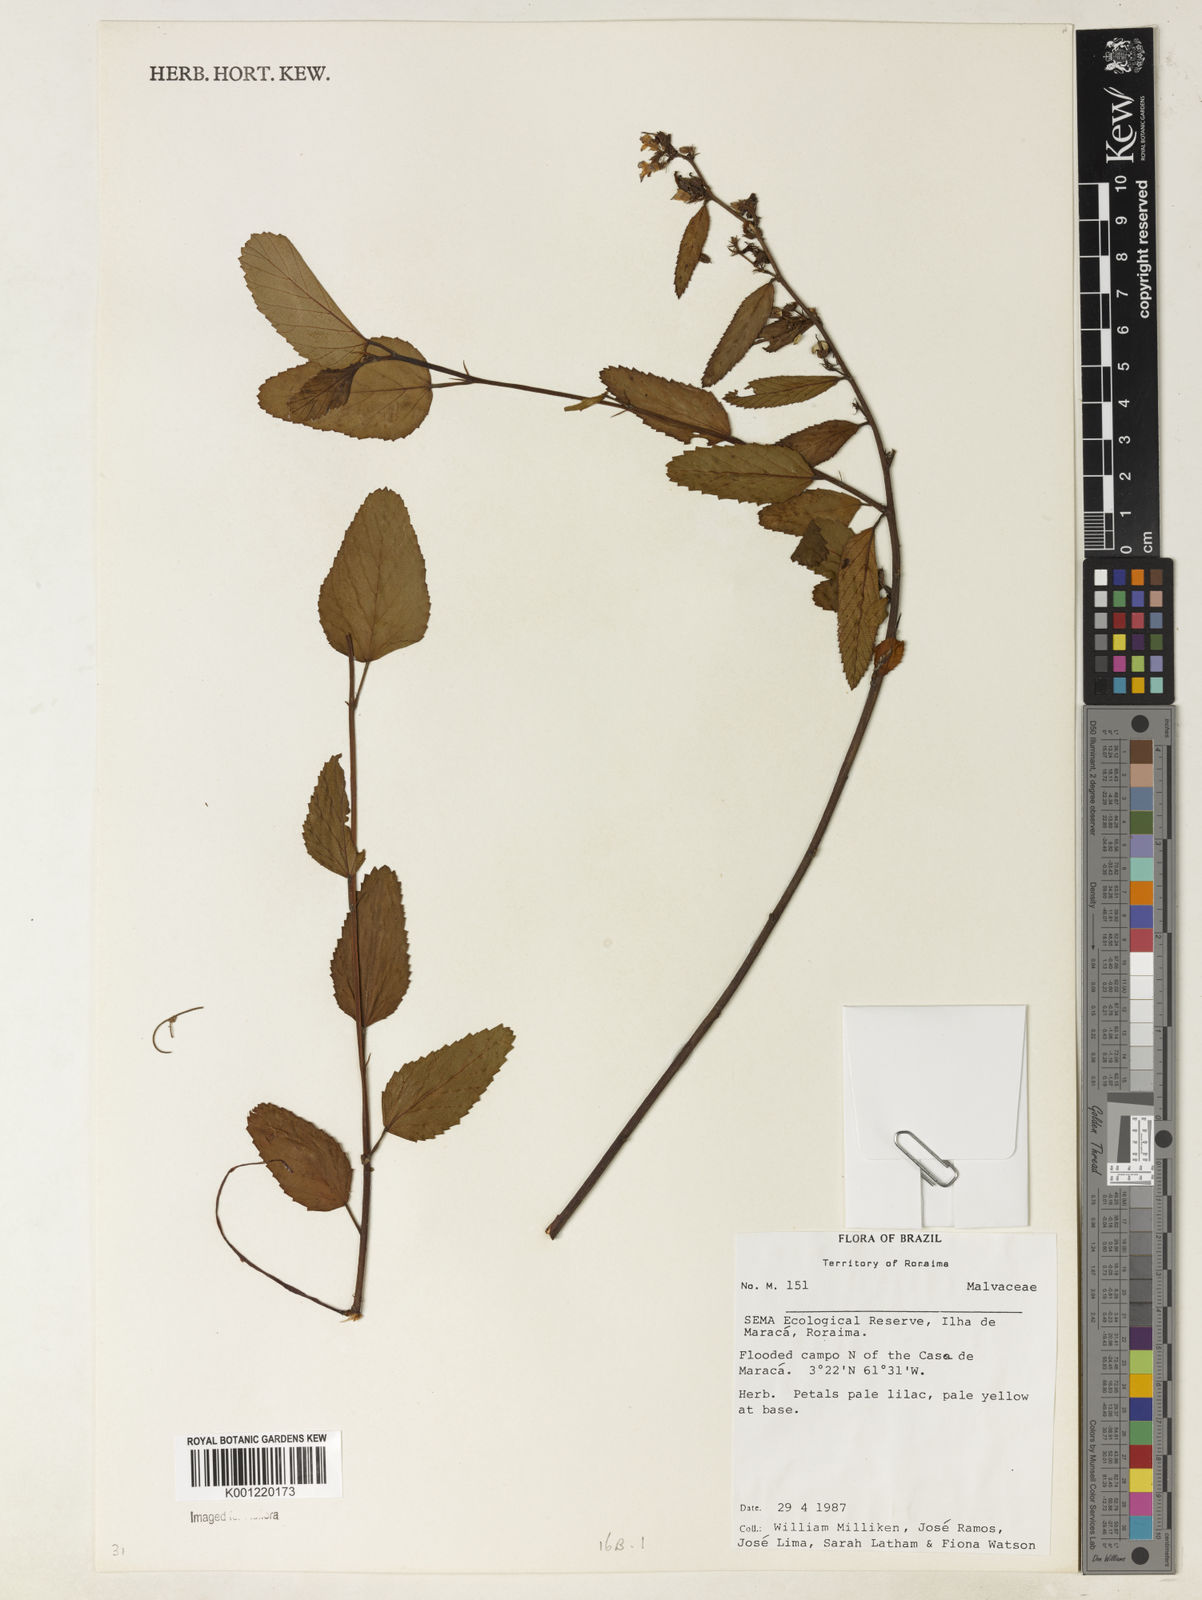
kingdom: Plantae
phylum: Tracheophyta
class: Magnoliopsida
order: Malvales
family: Malvaceae
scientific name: Malvaceae
